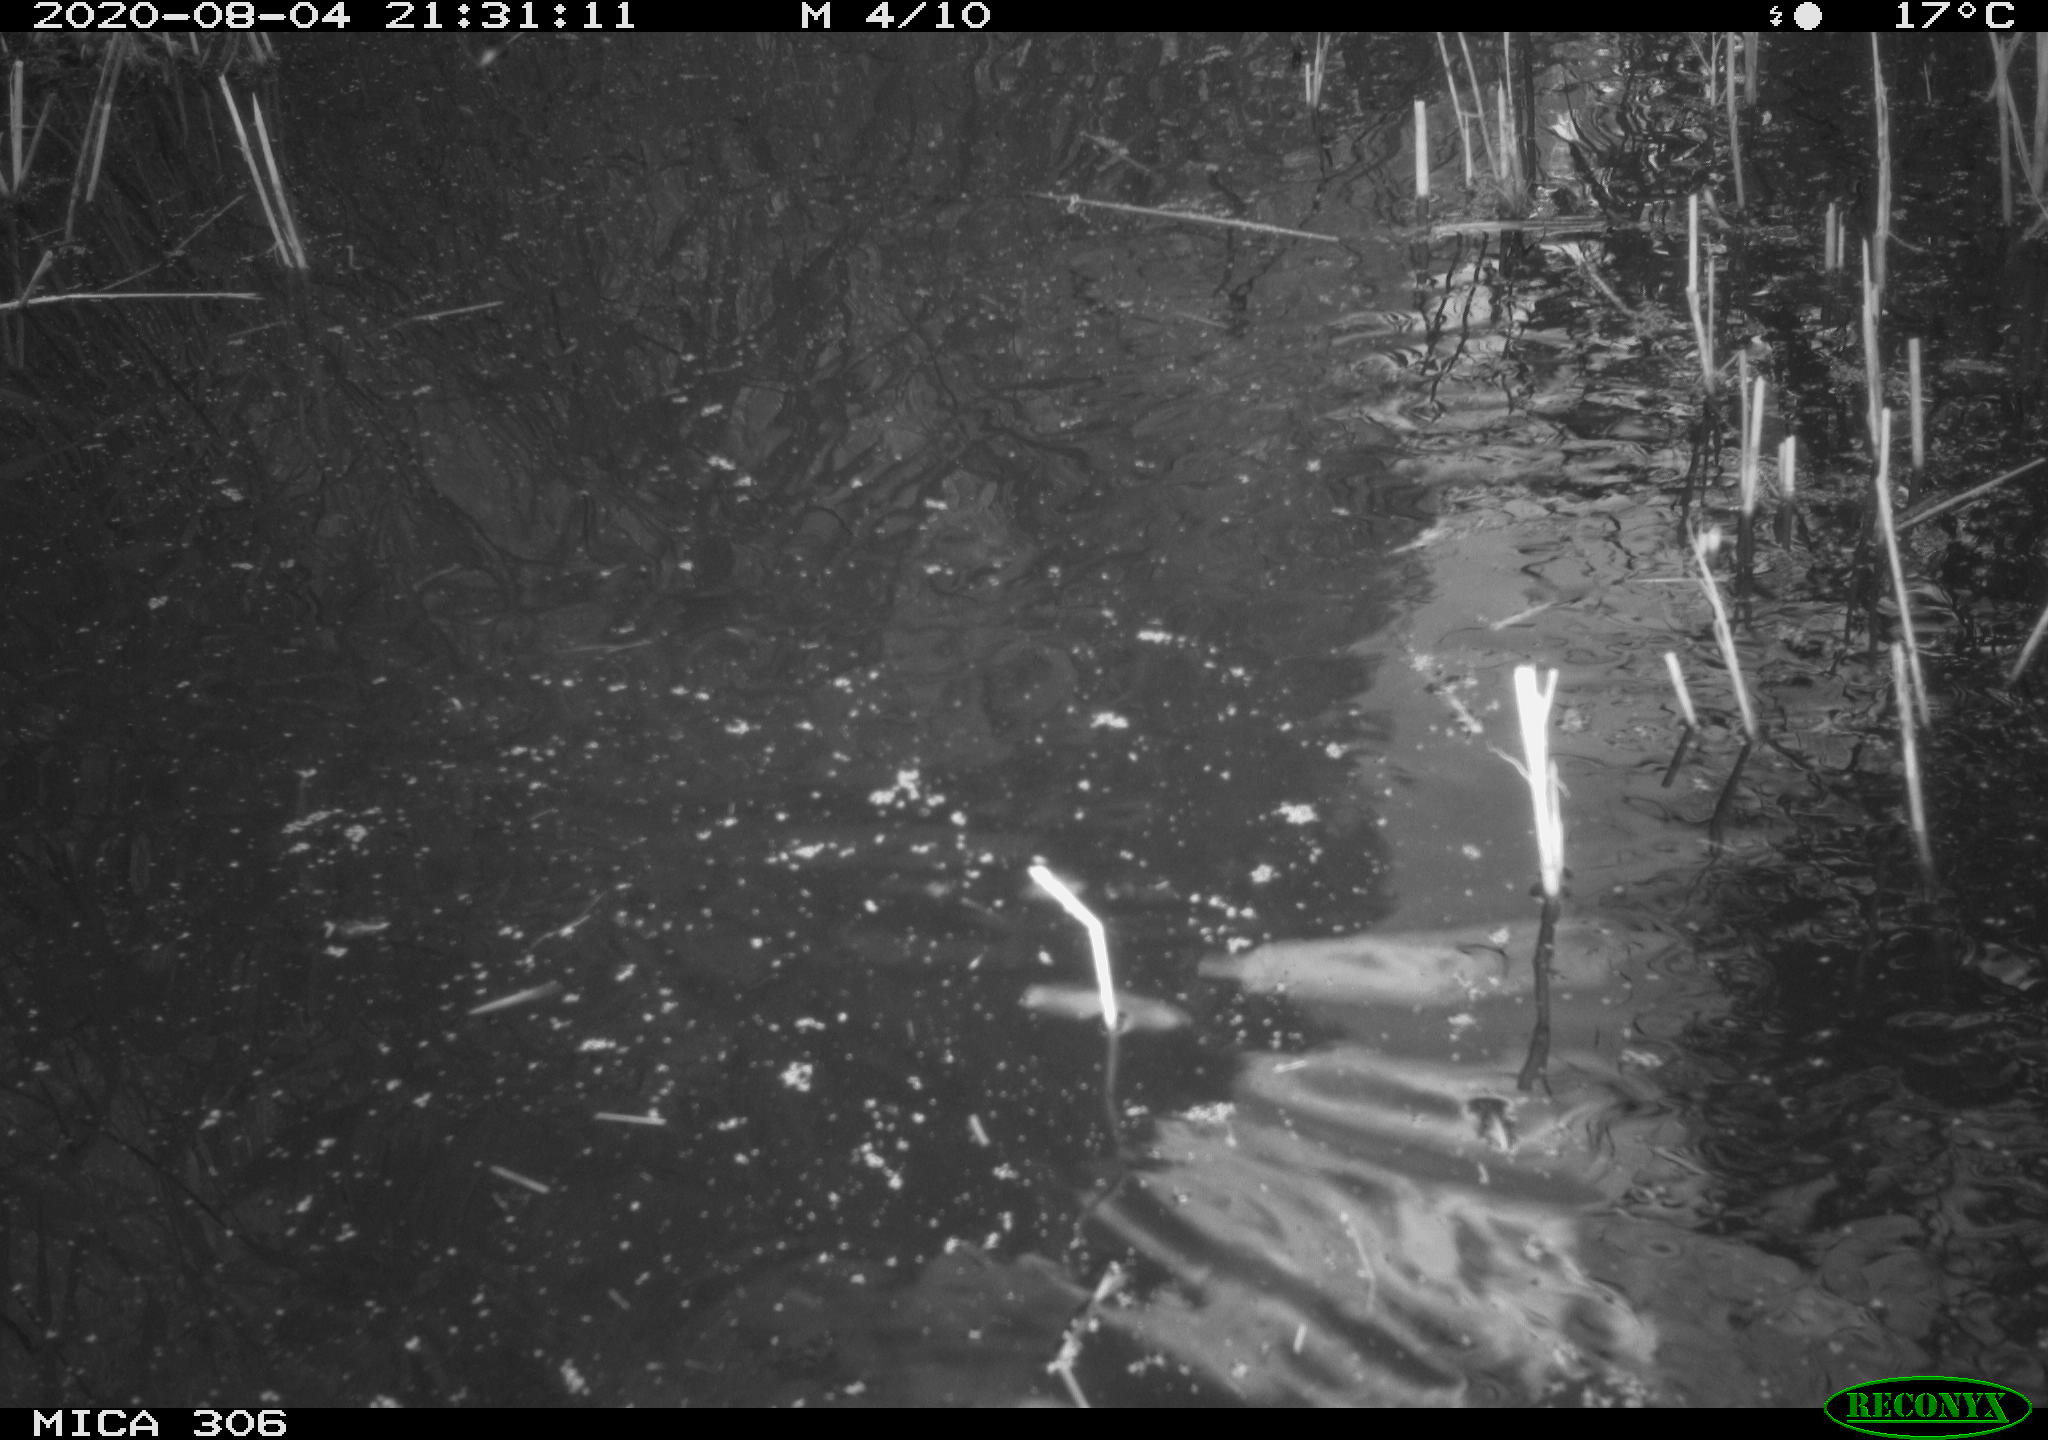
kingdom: Animalia
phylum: Chordata
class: Mammalia
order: Rodentia
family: Cricetidae
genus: Ondatra
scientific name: Ondatra zibethicus
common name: Muskrat
